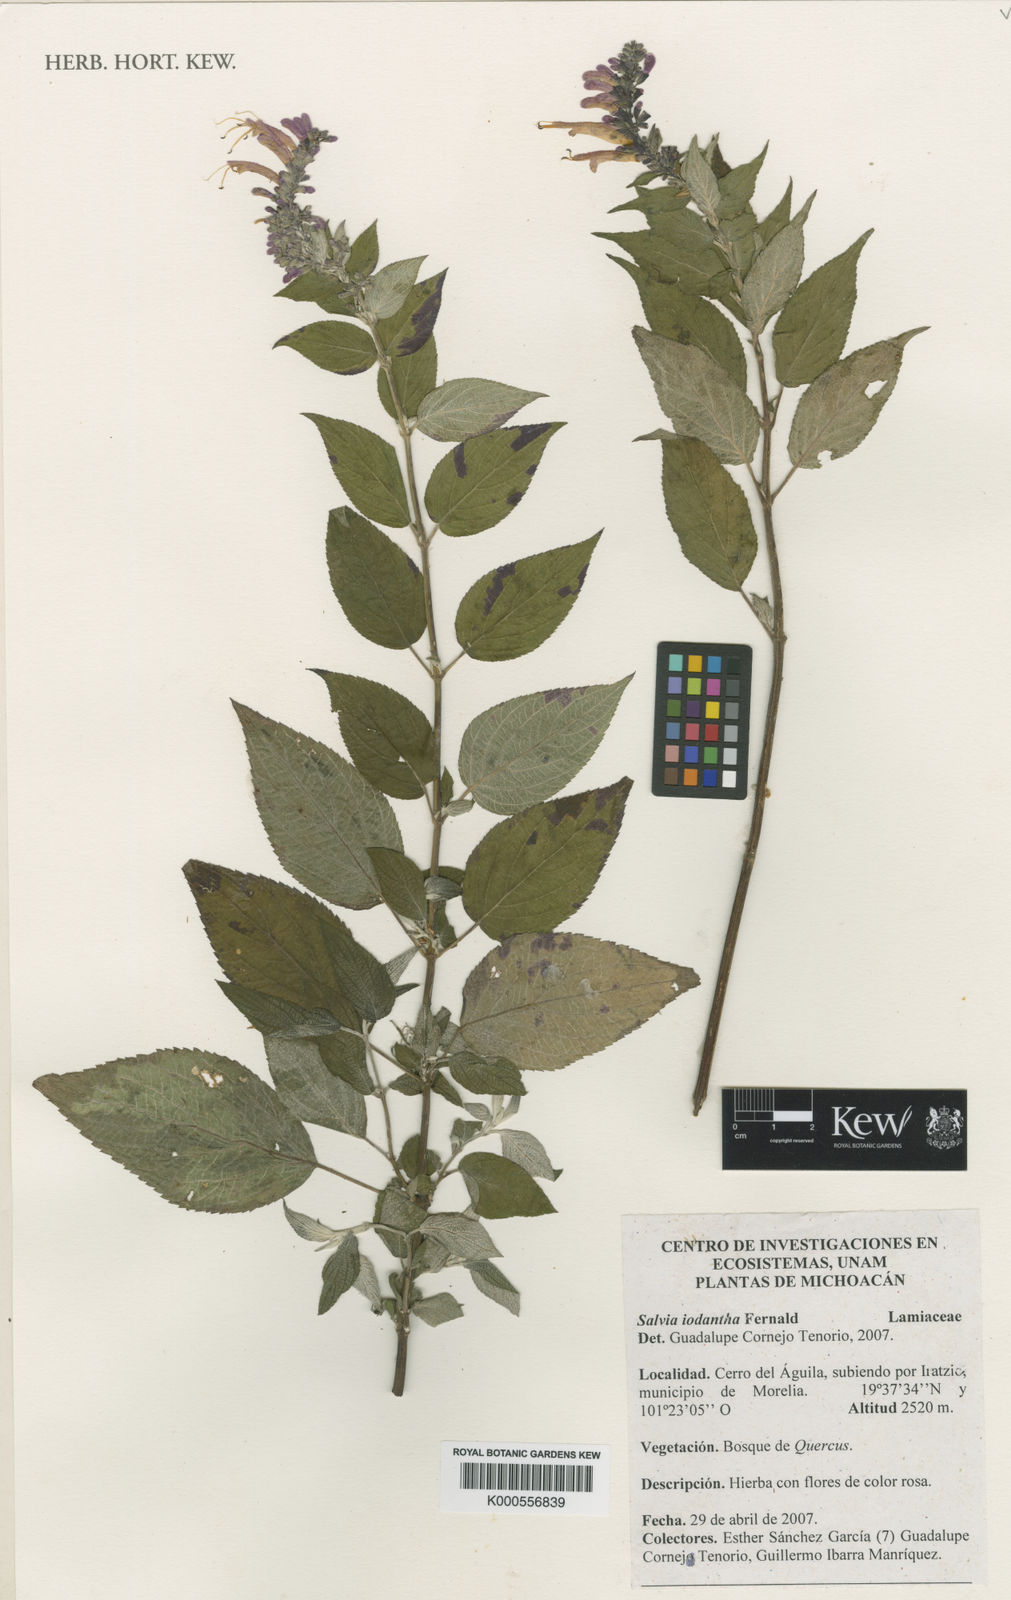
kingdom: Plantae
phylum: Tracheophyta
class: Magnoliopsida
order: Lamiales
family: Lamiaceae
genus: Salvia
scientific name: Salvia iodantha
